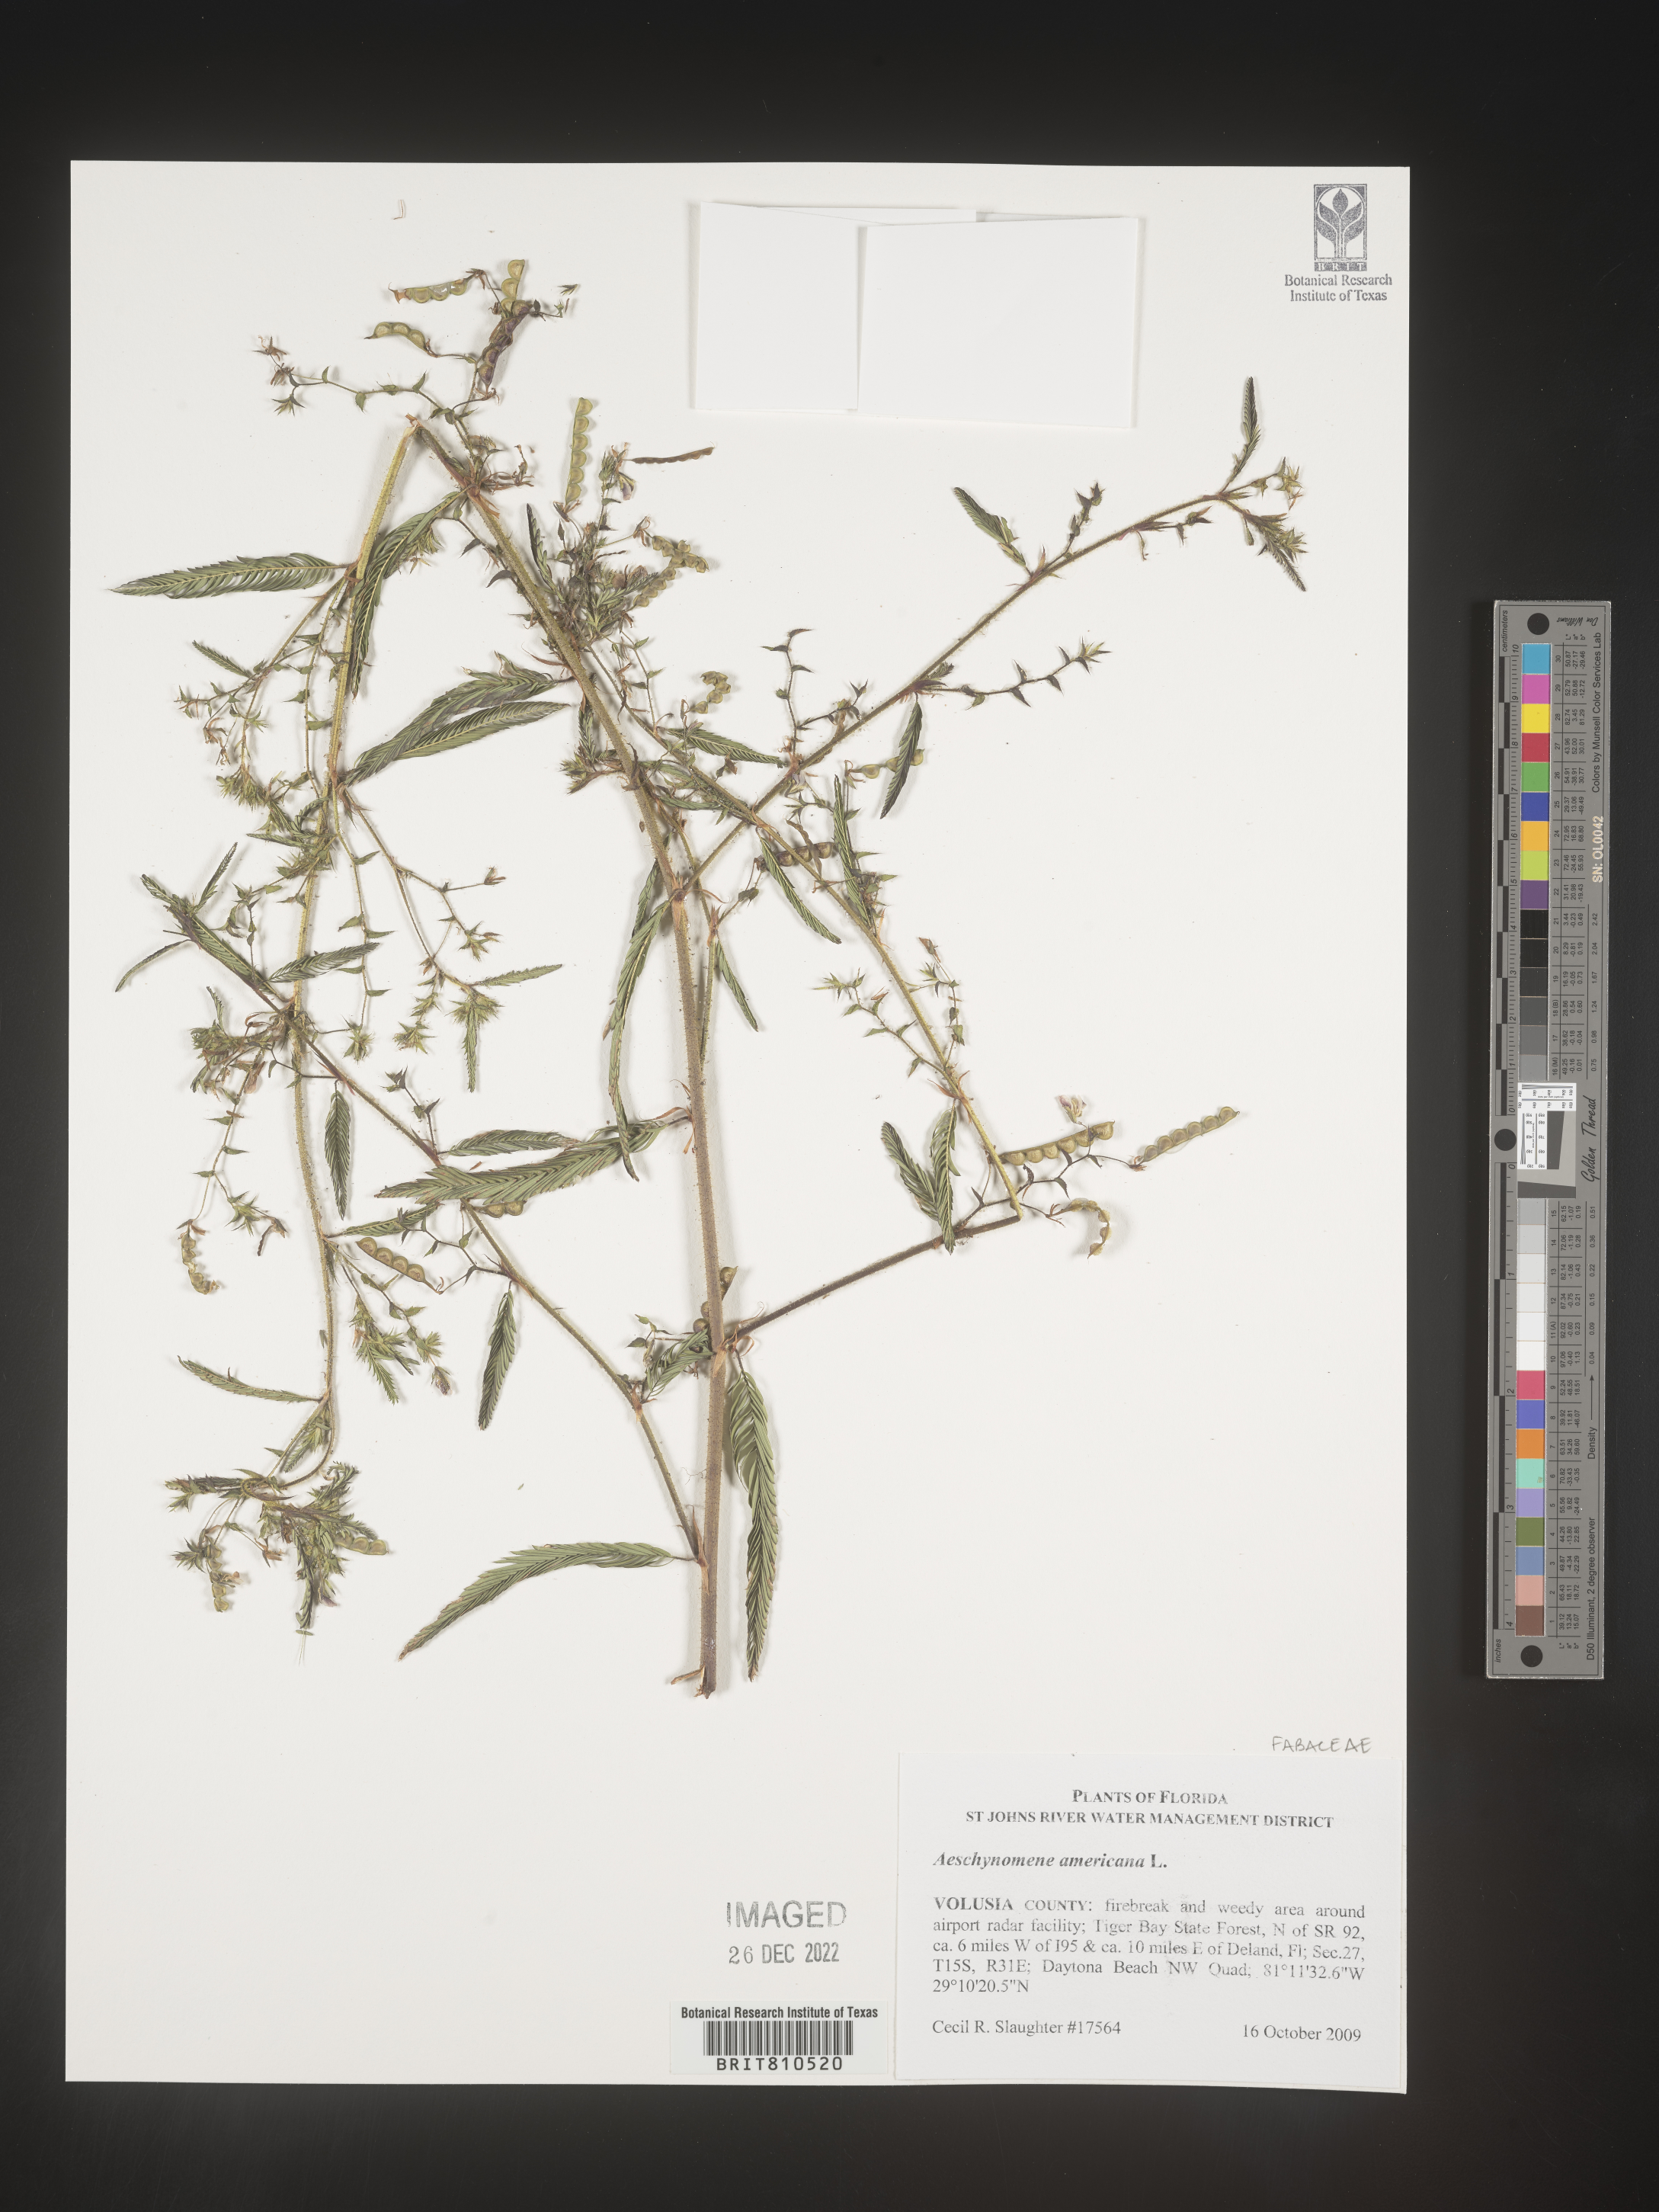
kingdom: Plantae
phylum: Tracheophyta
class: Magnoliopsida
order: Fabales
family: Fabaceae
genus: Aeschynomene
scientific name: Aeschynomene americana
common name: Joint-vetch
